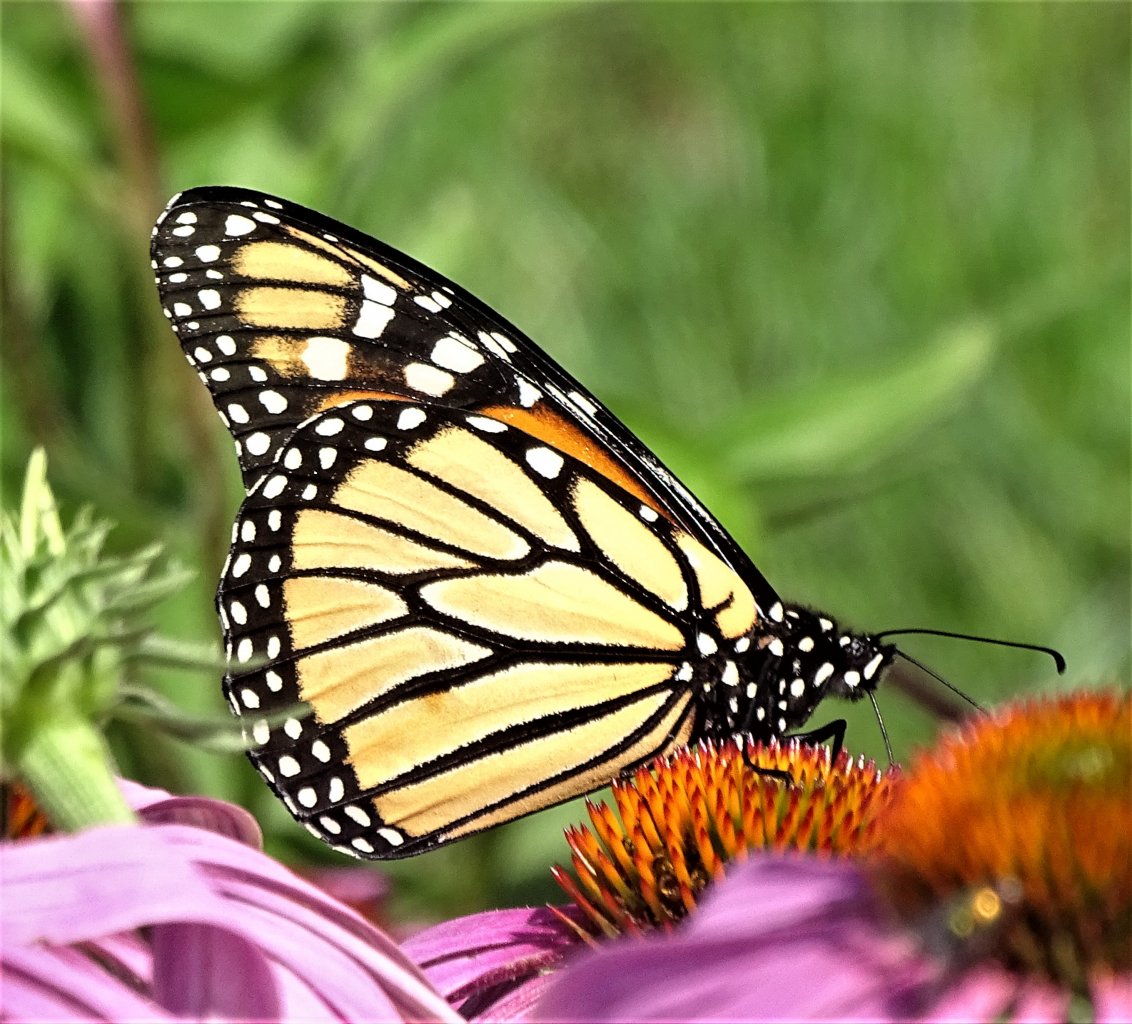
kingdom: Animalia
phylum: Arthropoda
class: Insecta
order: Lepidoptera
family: Nymphalidae
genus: Danaus
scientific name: Danaus plexippus
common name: Monarch
